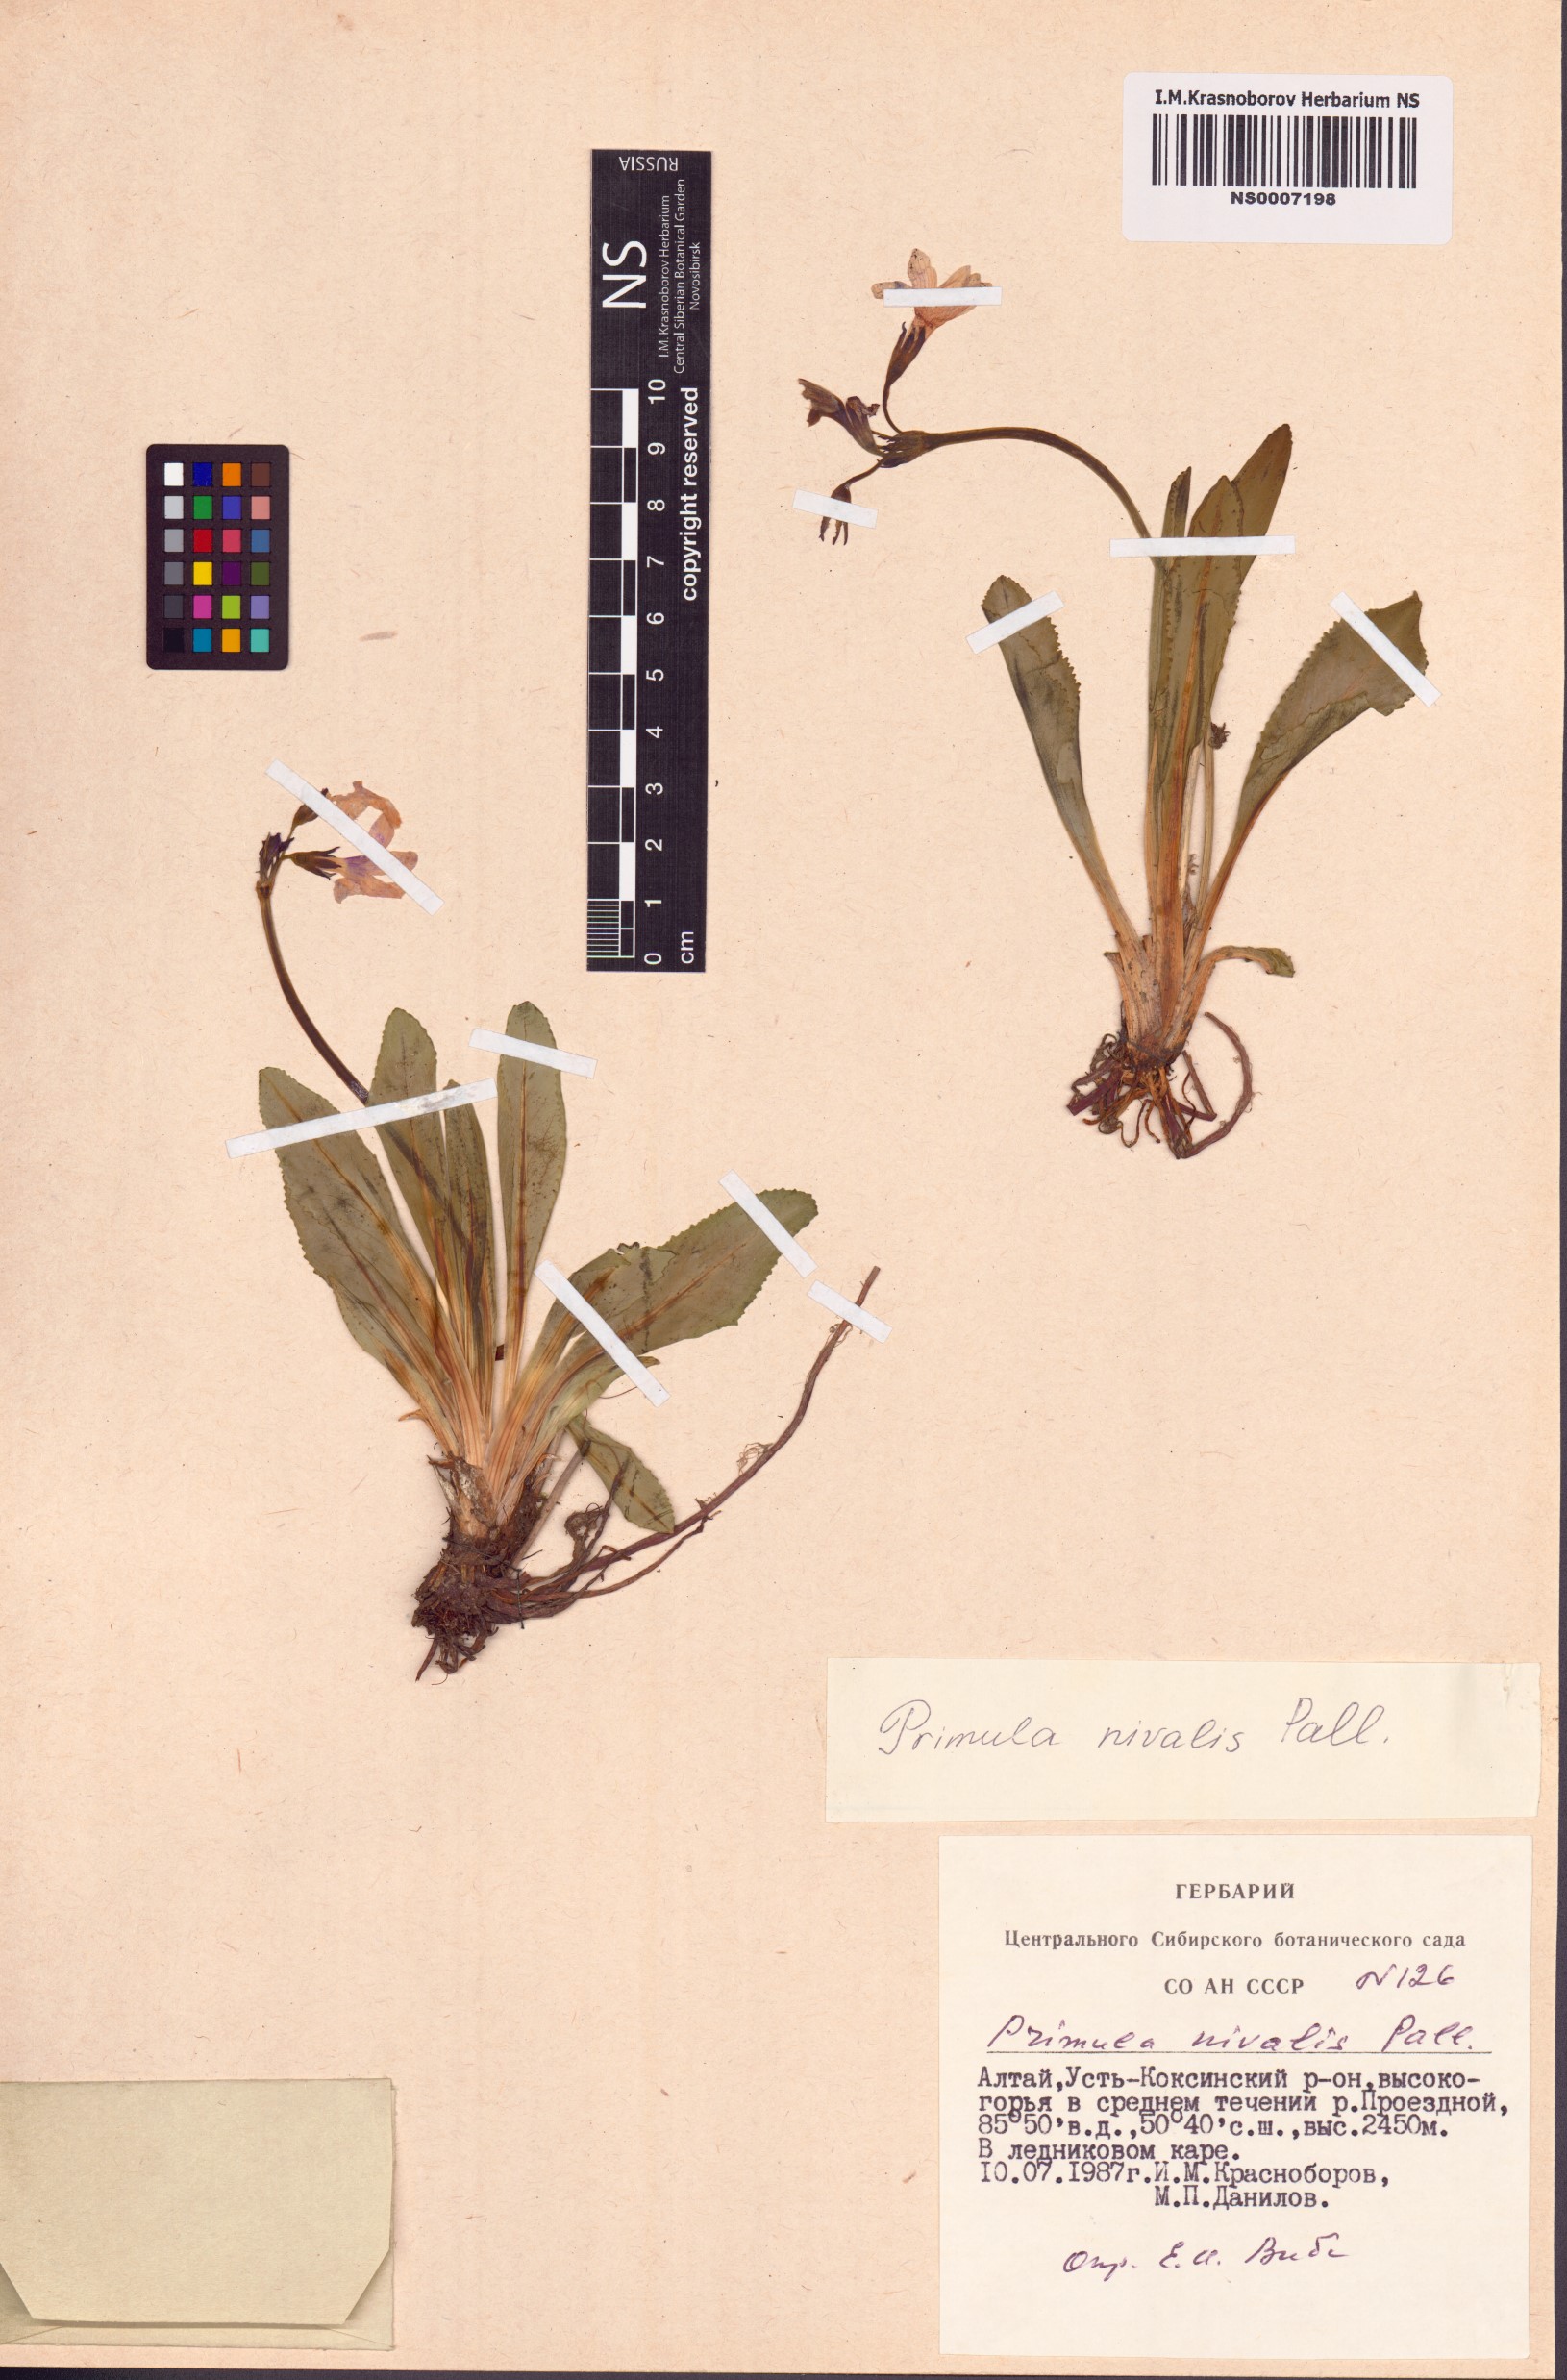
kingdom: Plantae
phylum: Tracheophyta
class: Magnoliopsida
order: Ericales
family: Primulaceae
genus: Primula
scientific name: Primula nivalis
